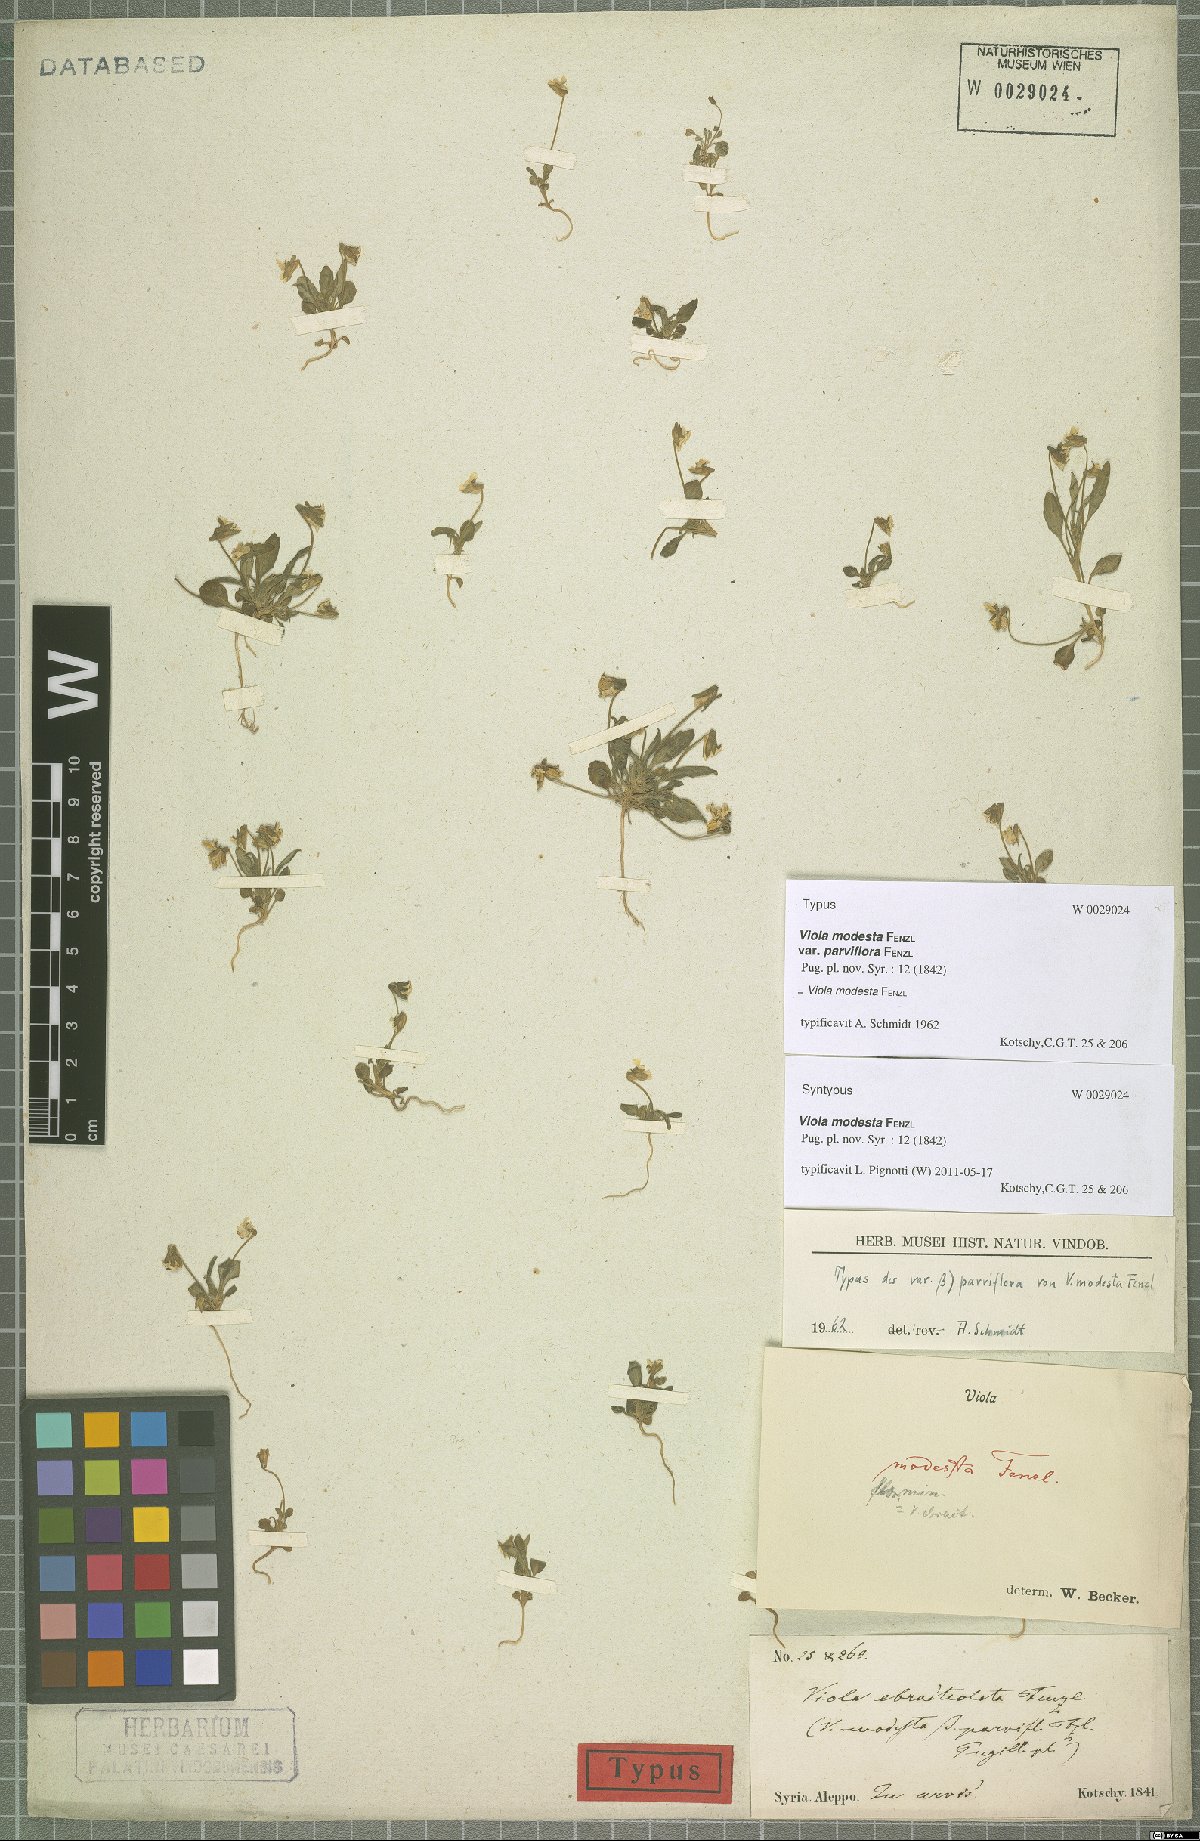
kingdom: Plantae
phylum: Tracheophyta
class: Magnoliopsida
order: Malpighiales
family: Violaceae
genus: Viola
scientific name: Viola modesta
